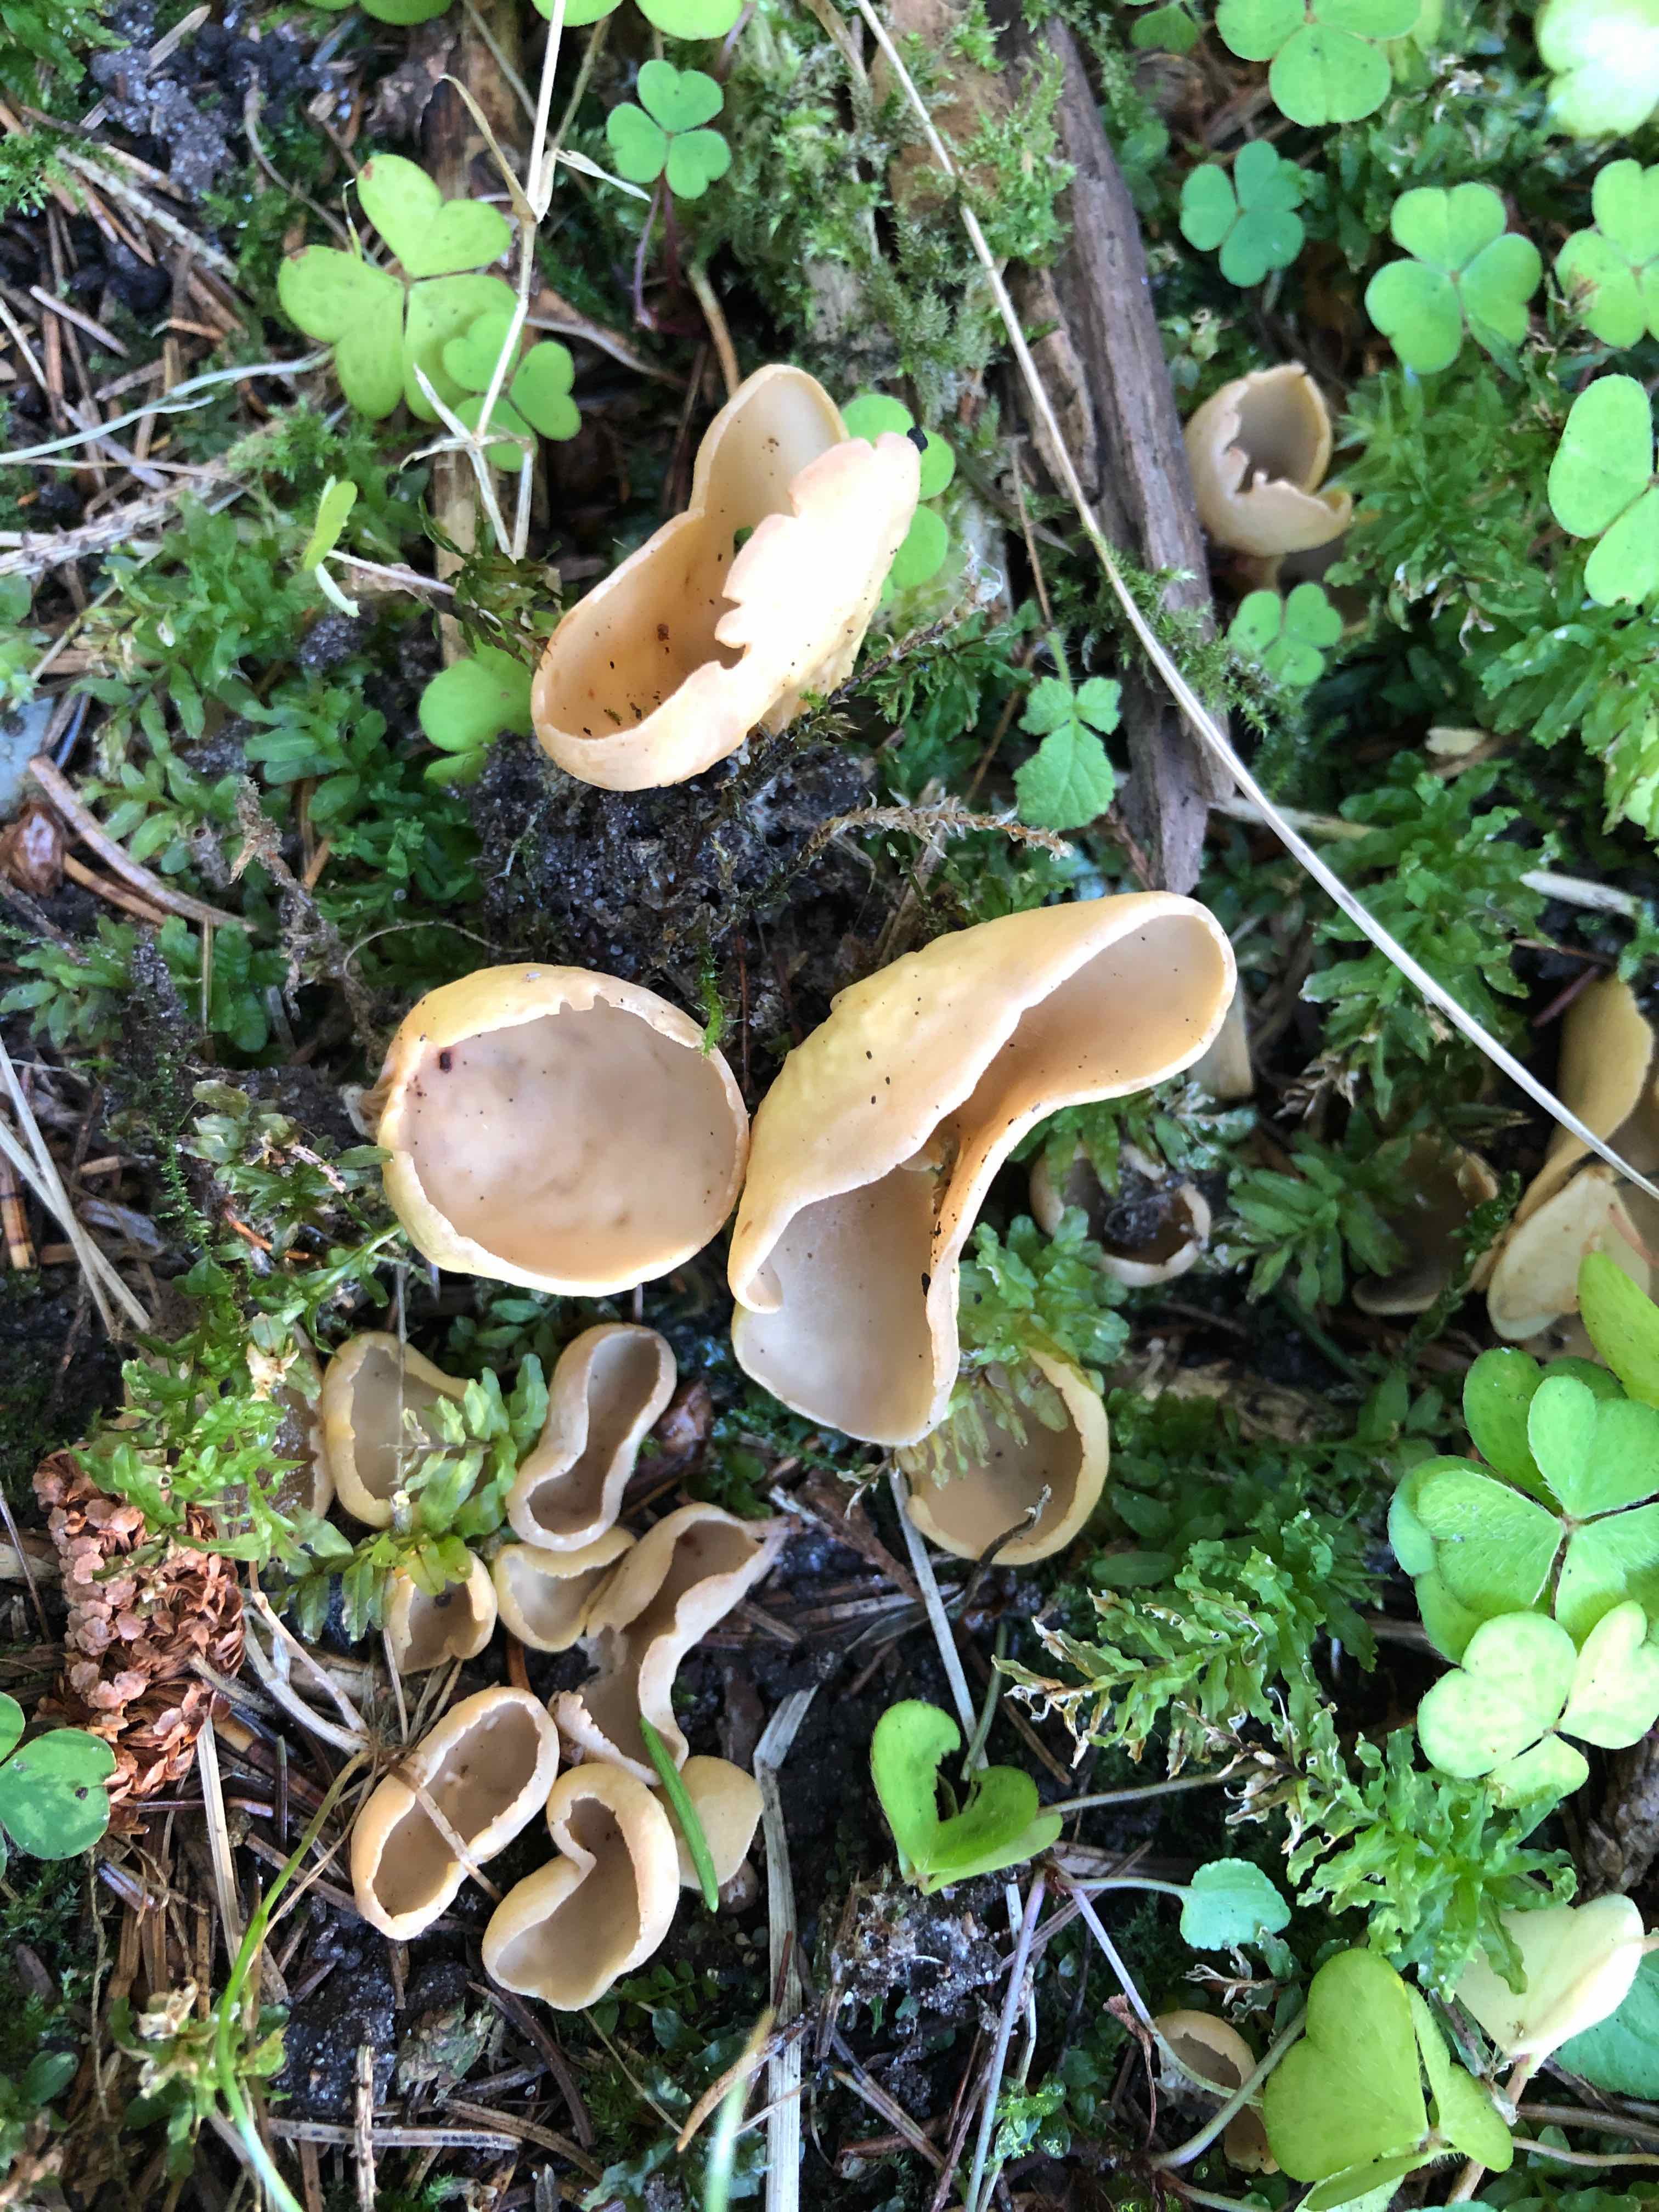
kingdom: Fungi
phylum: Ascomycota
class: Pezizomycetes
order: Pezizales
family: Otideaceae
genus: Otidea
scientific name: Otidea phlebophora
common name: året ørebæger
